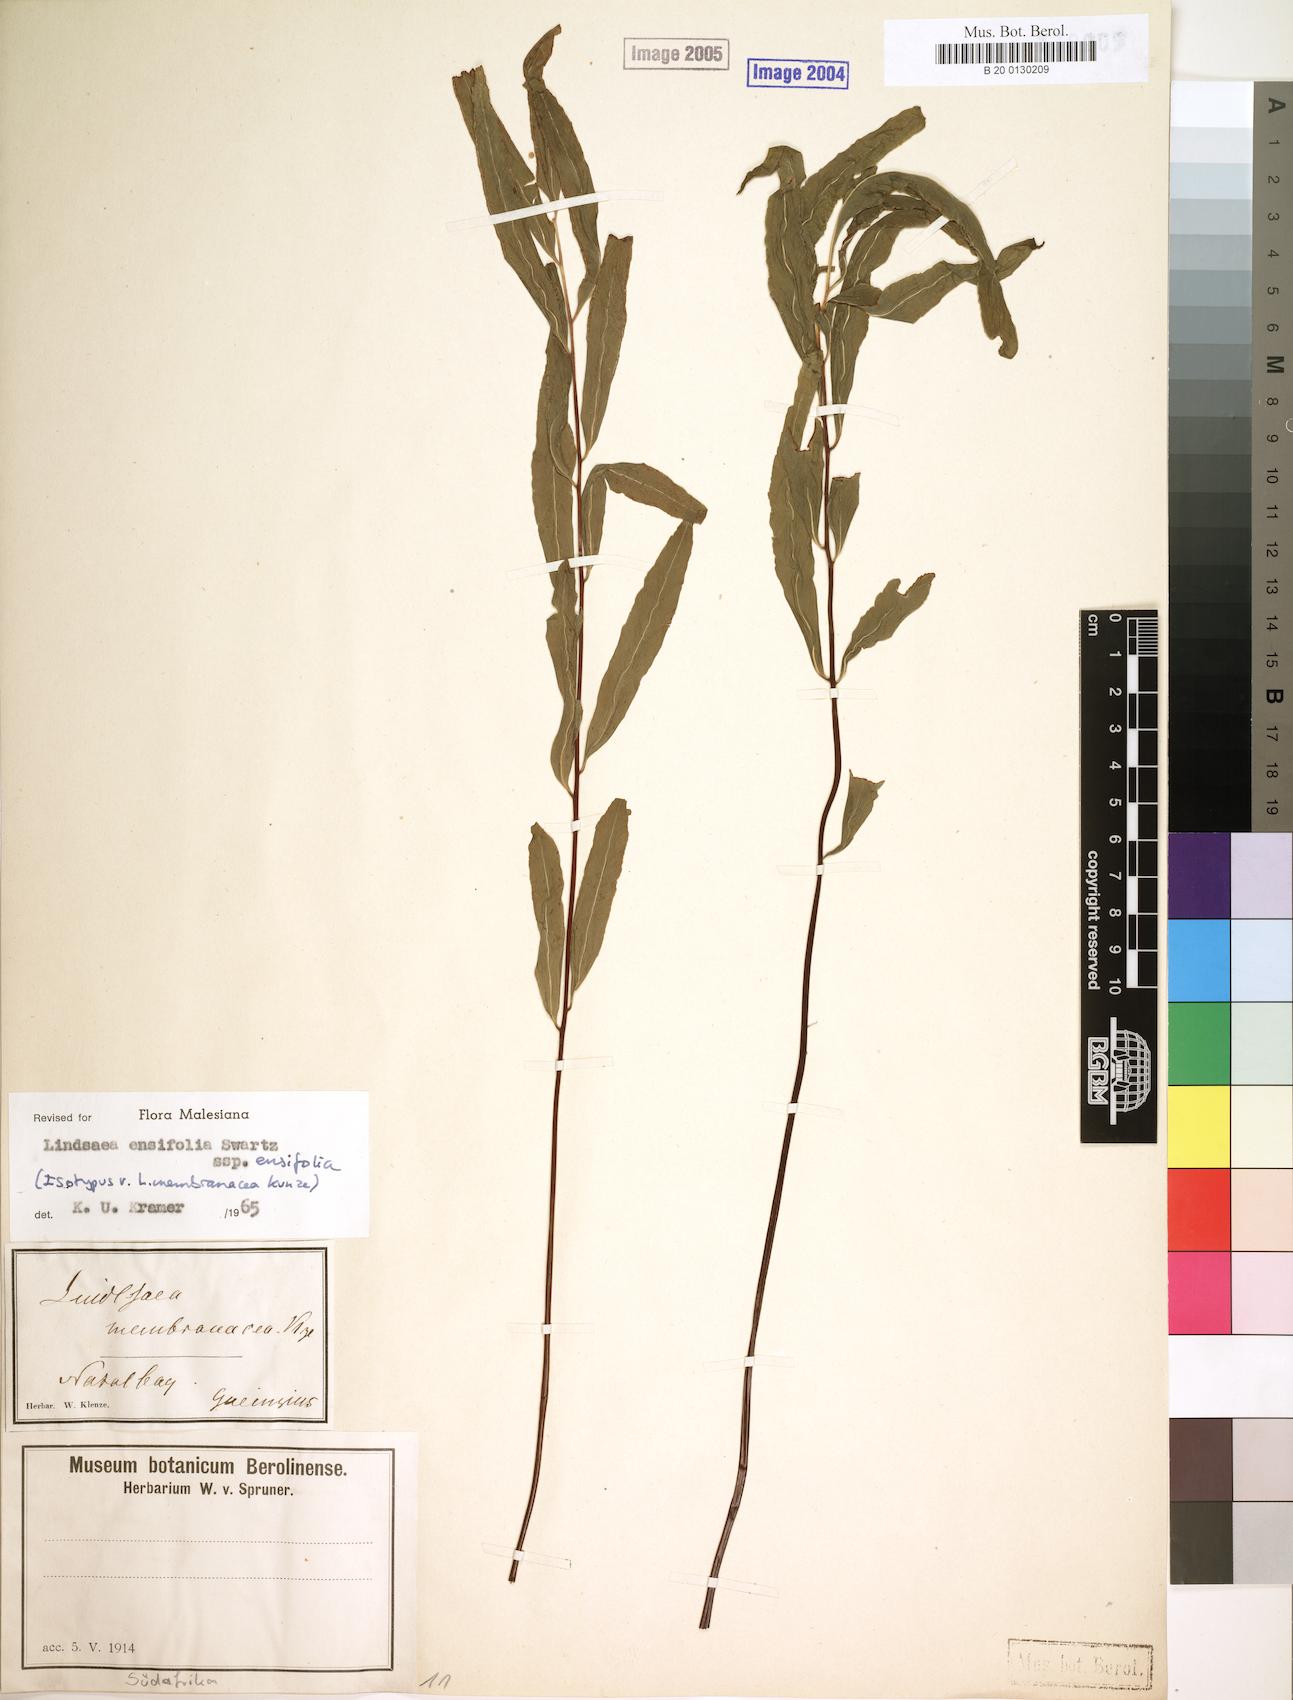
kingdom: Plantae
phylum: Tracheophyta
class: Polypodiopsida
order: Polypodiales
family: Lindsaeaceae
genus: Lindsaea
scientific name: Lindsaea ensifolia
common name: Graceful necklace fern
